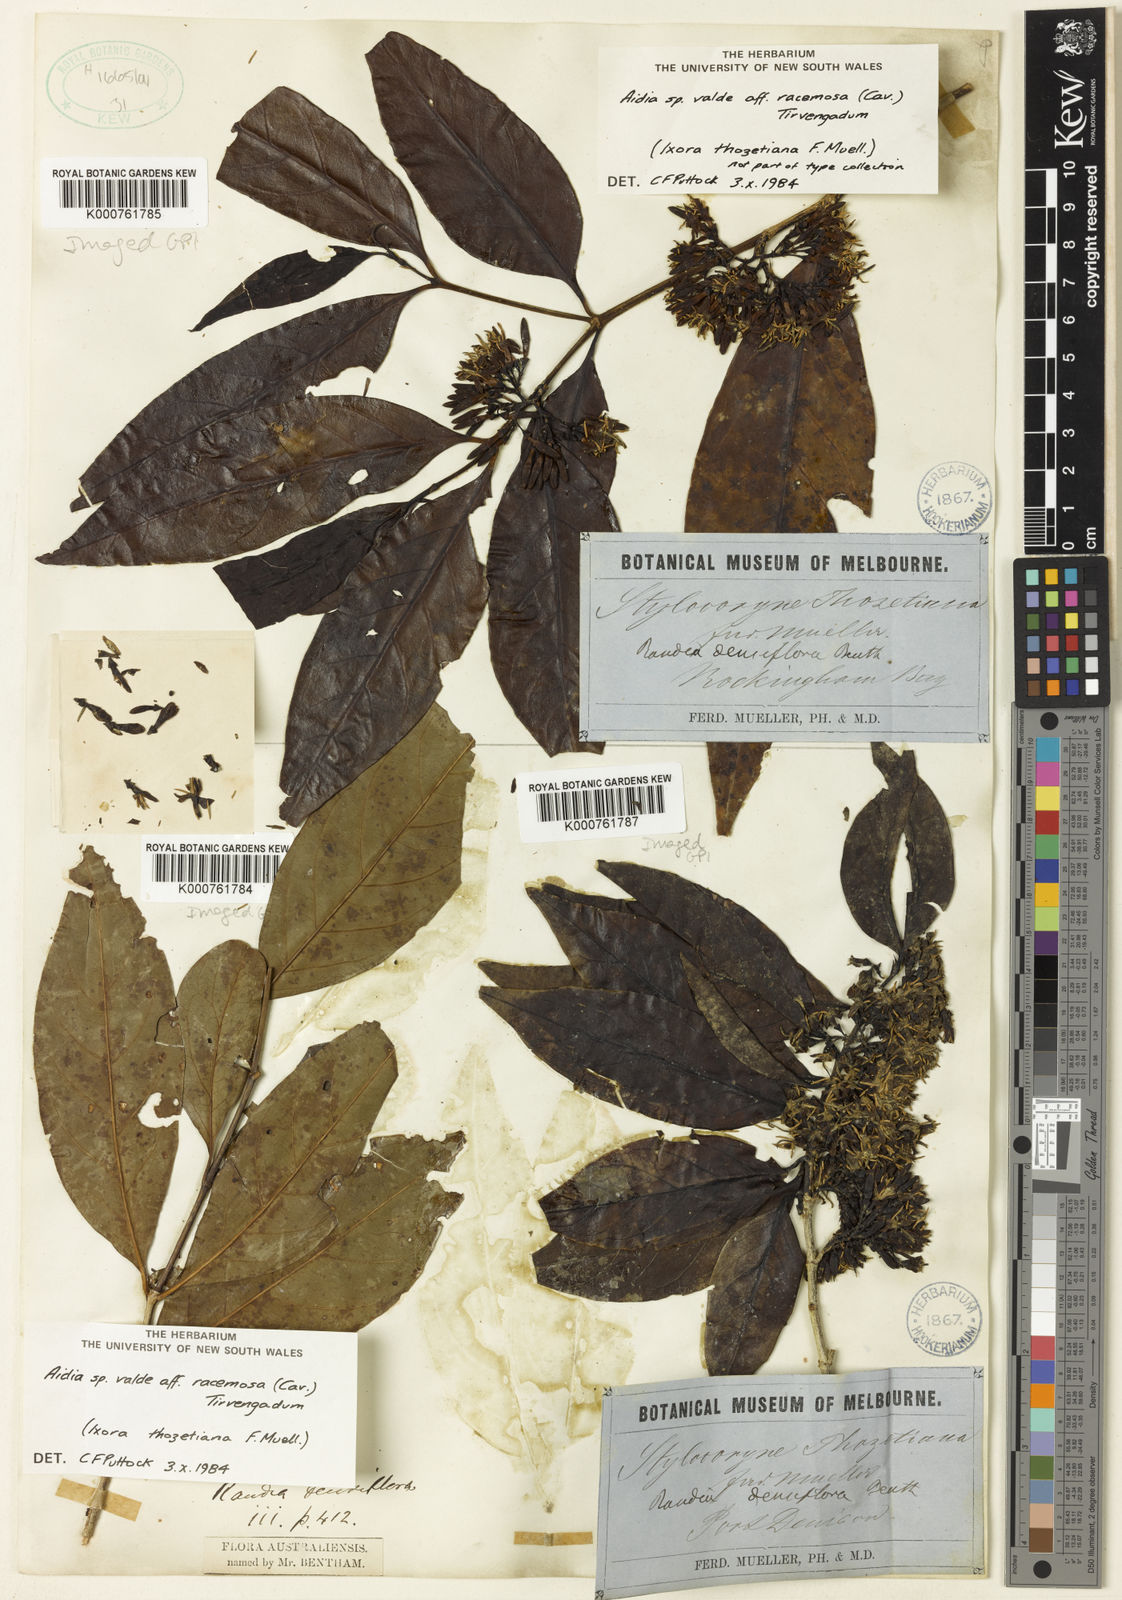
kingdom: Plantae
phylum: Tracheophyta
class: Magnoliopsida
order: Gentianales
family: Rubiaceae
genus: Aidia
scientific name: Aidia racemosa
